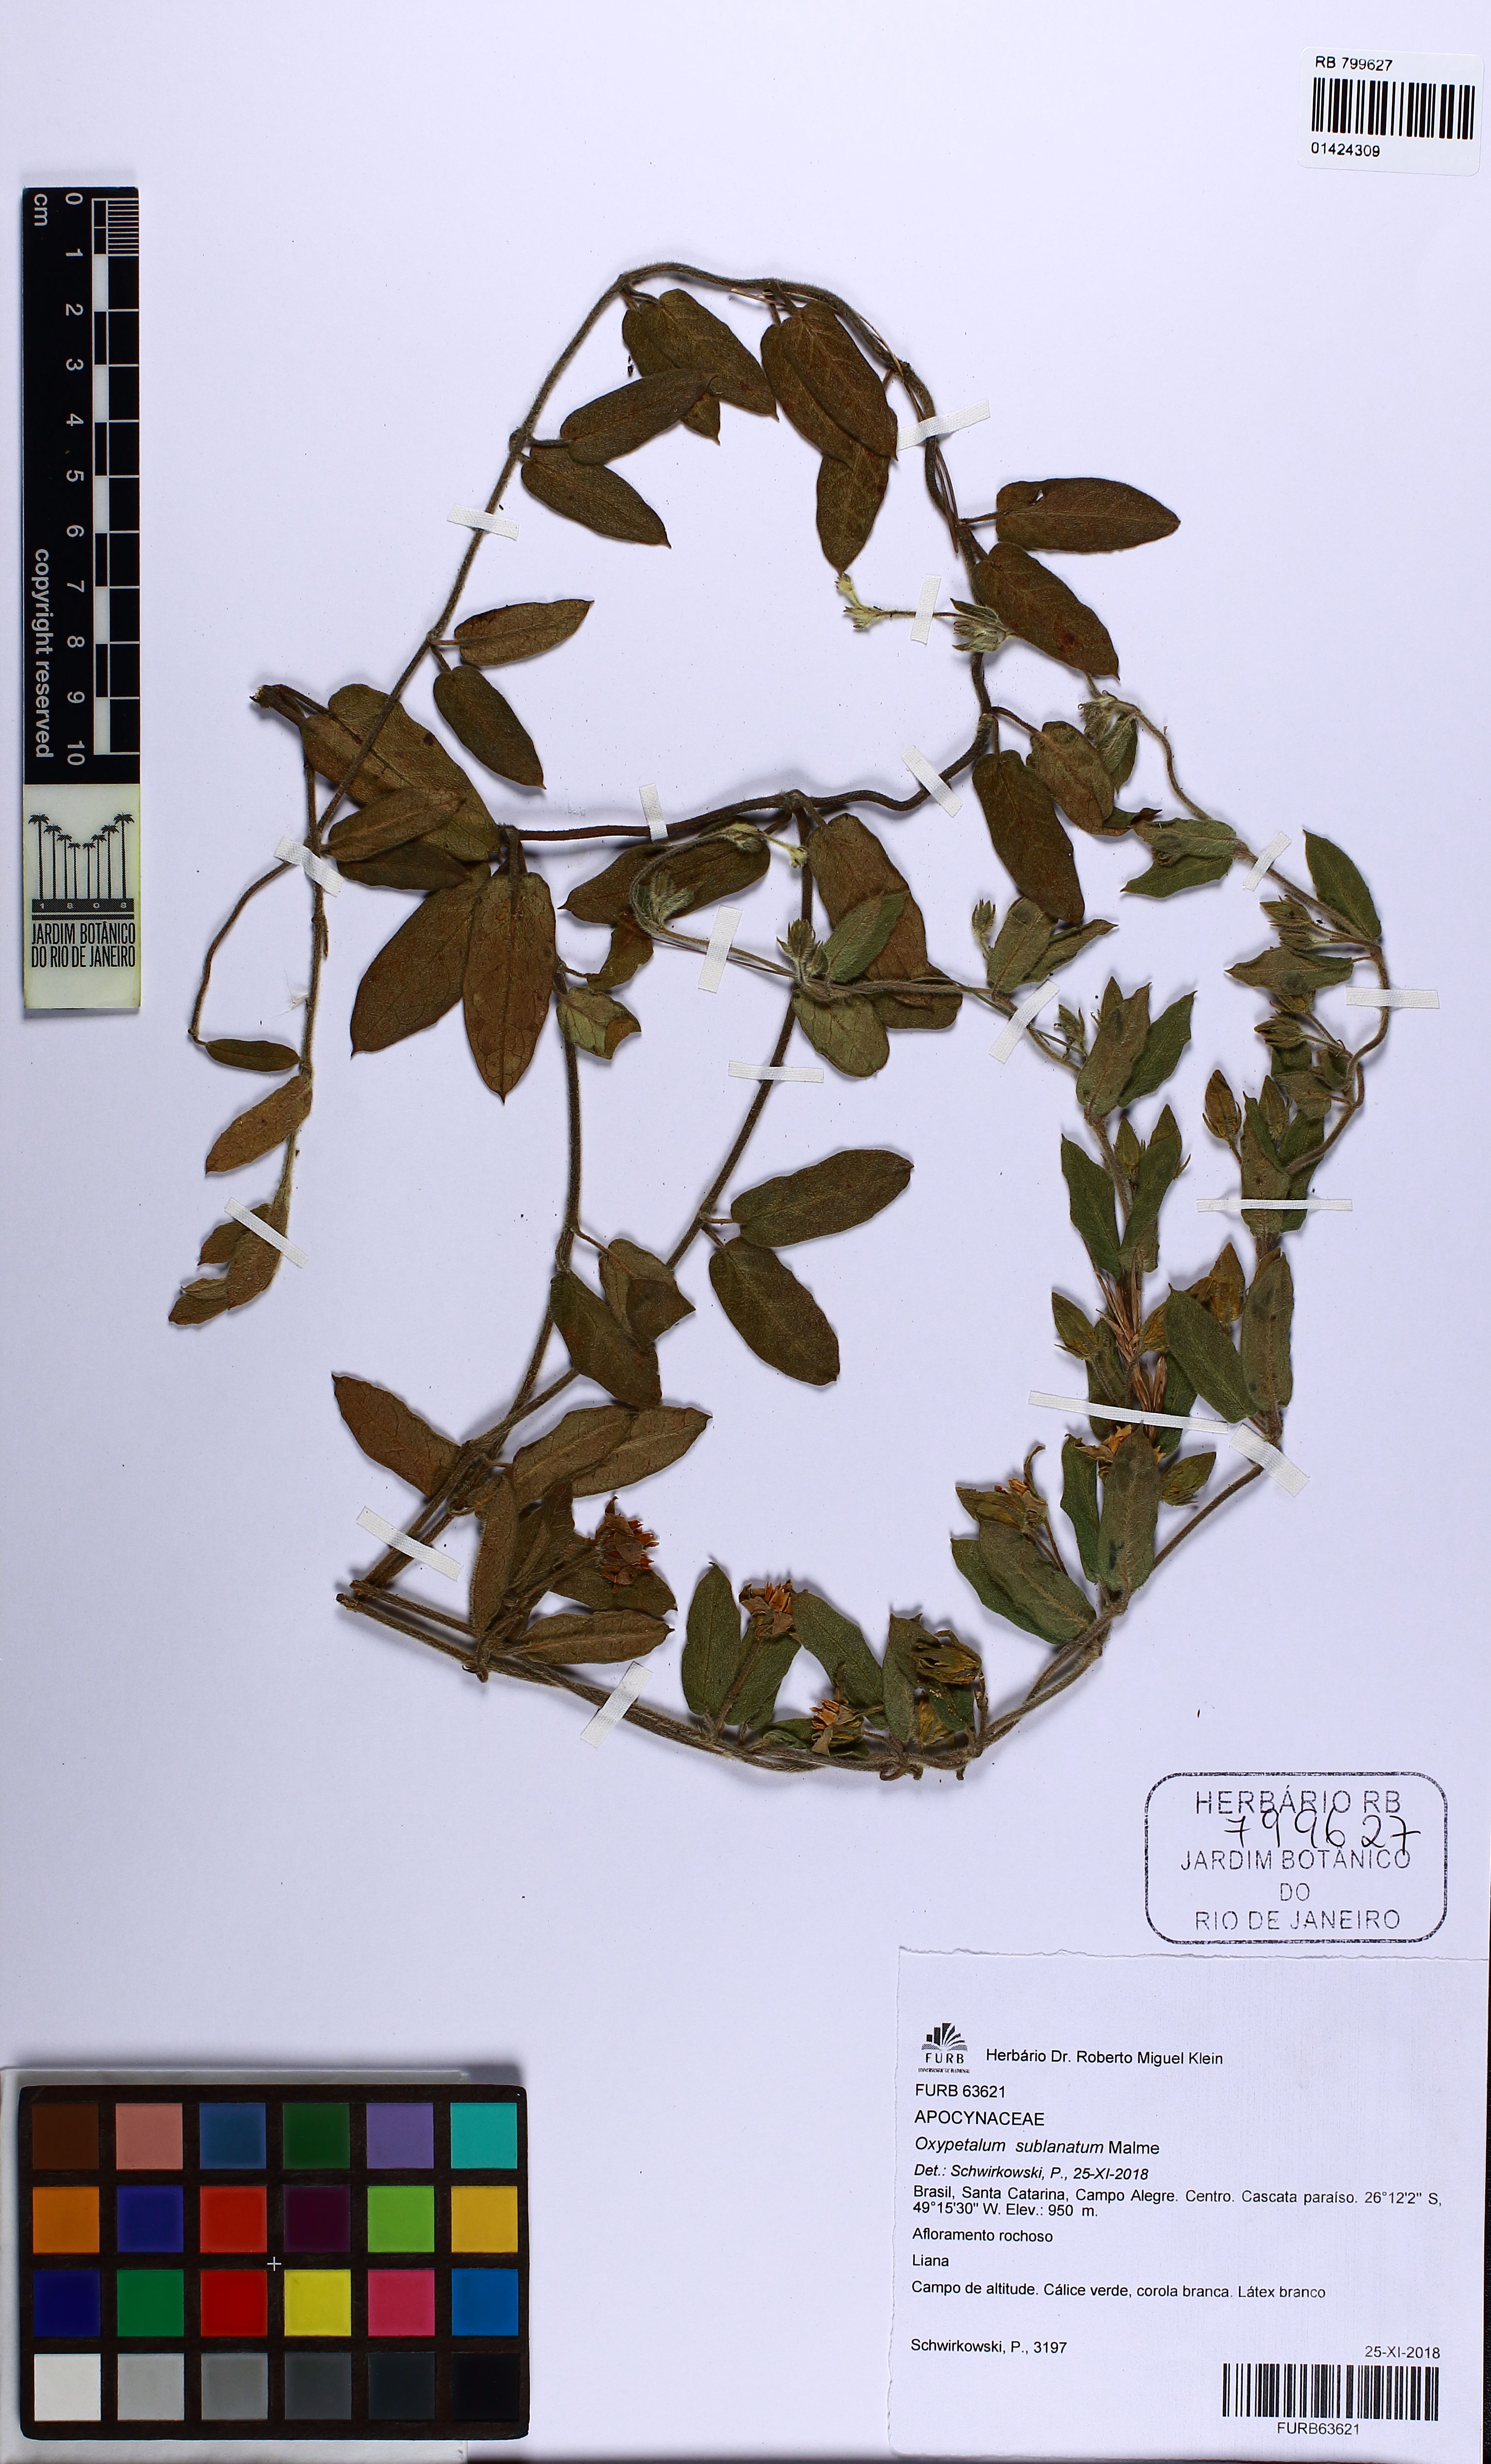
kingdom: Plantae
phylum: Tracheophyta
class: Magnoliopsida
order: Gentianales
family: Apocynaceae
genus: Oxypetalum
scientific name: Oxypetalum sublanatum
